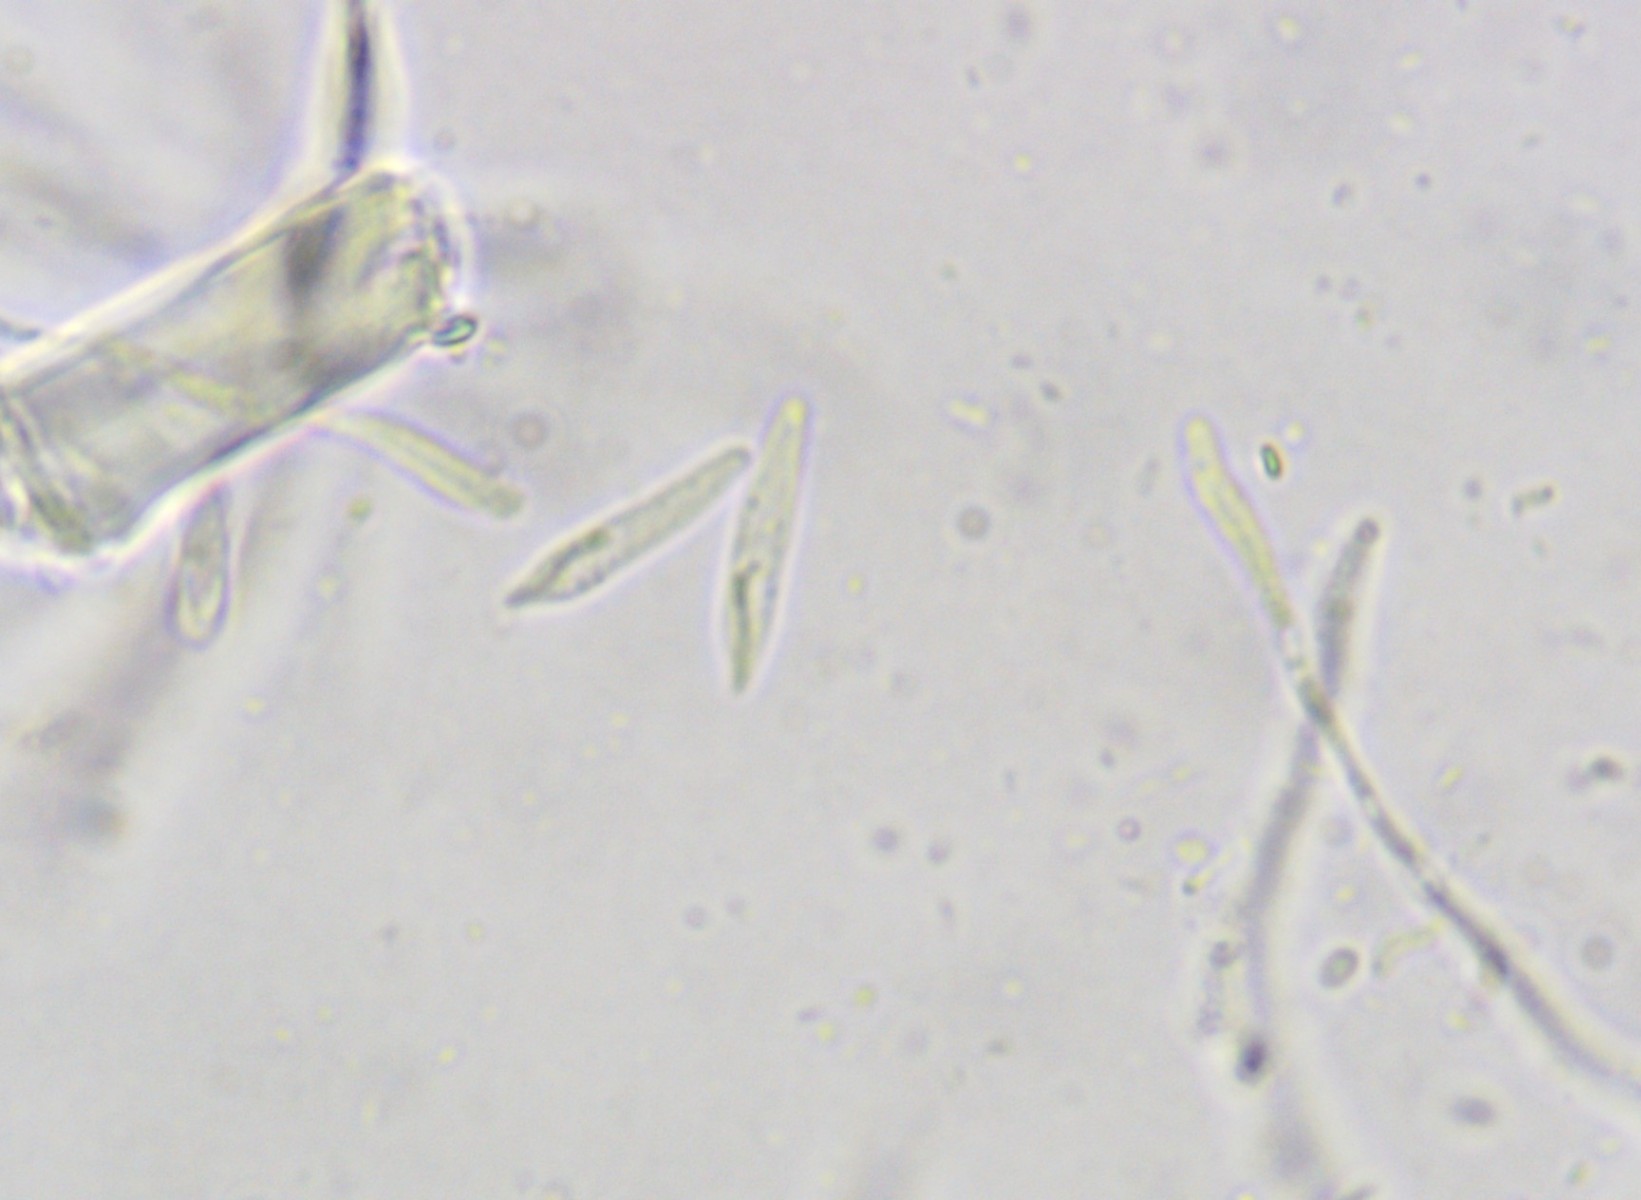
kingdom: Fungi
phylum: Ascomycota
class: Orbiliomycetes
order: Orbiliales
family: Orbiliaceae
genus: Orbilia
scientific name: Orbilia carpoboloides
